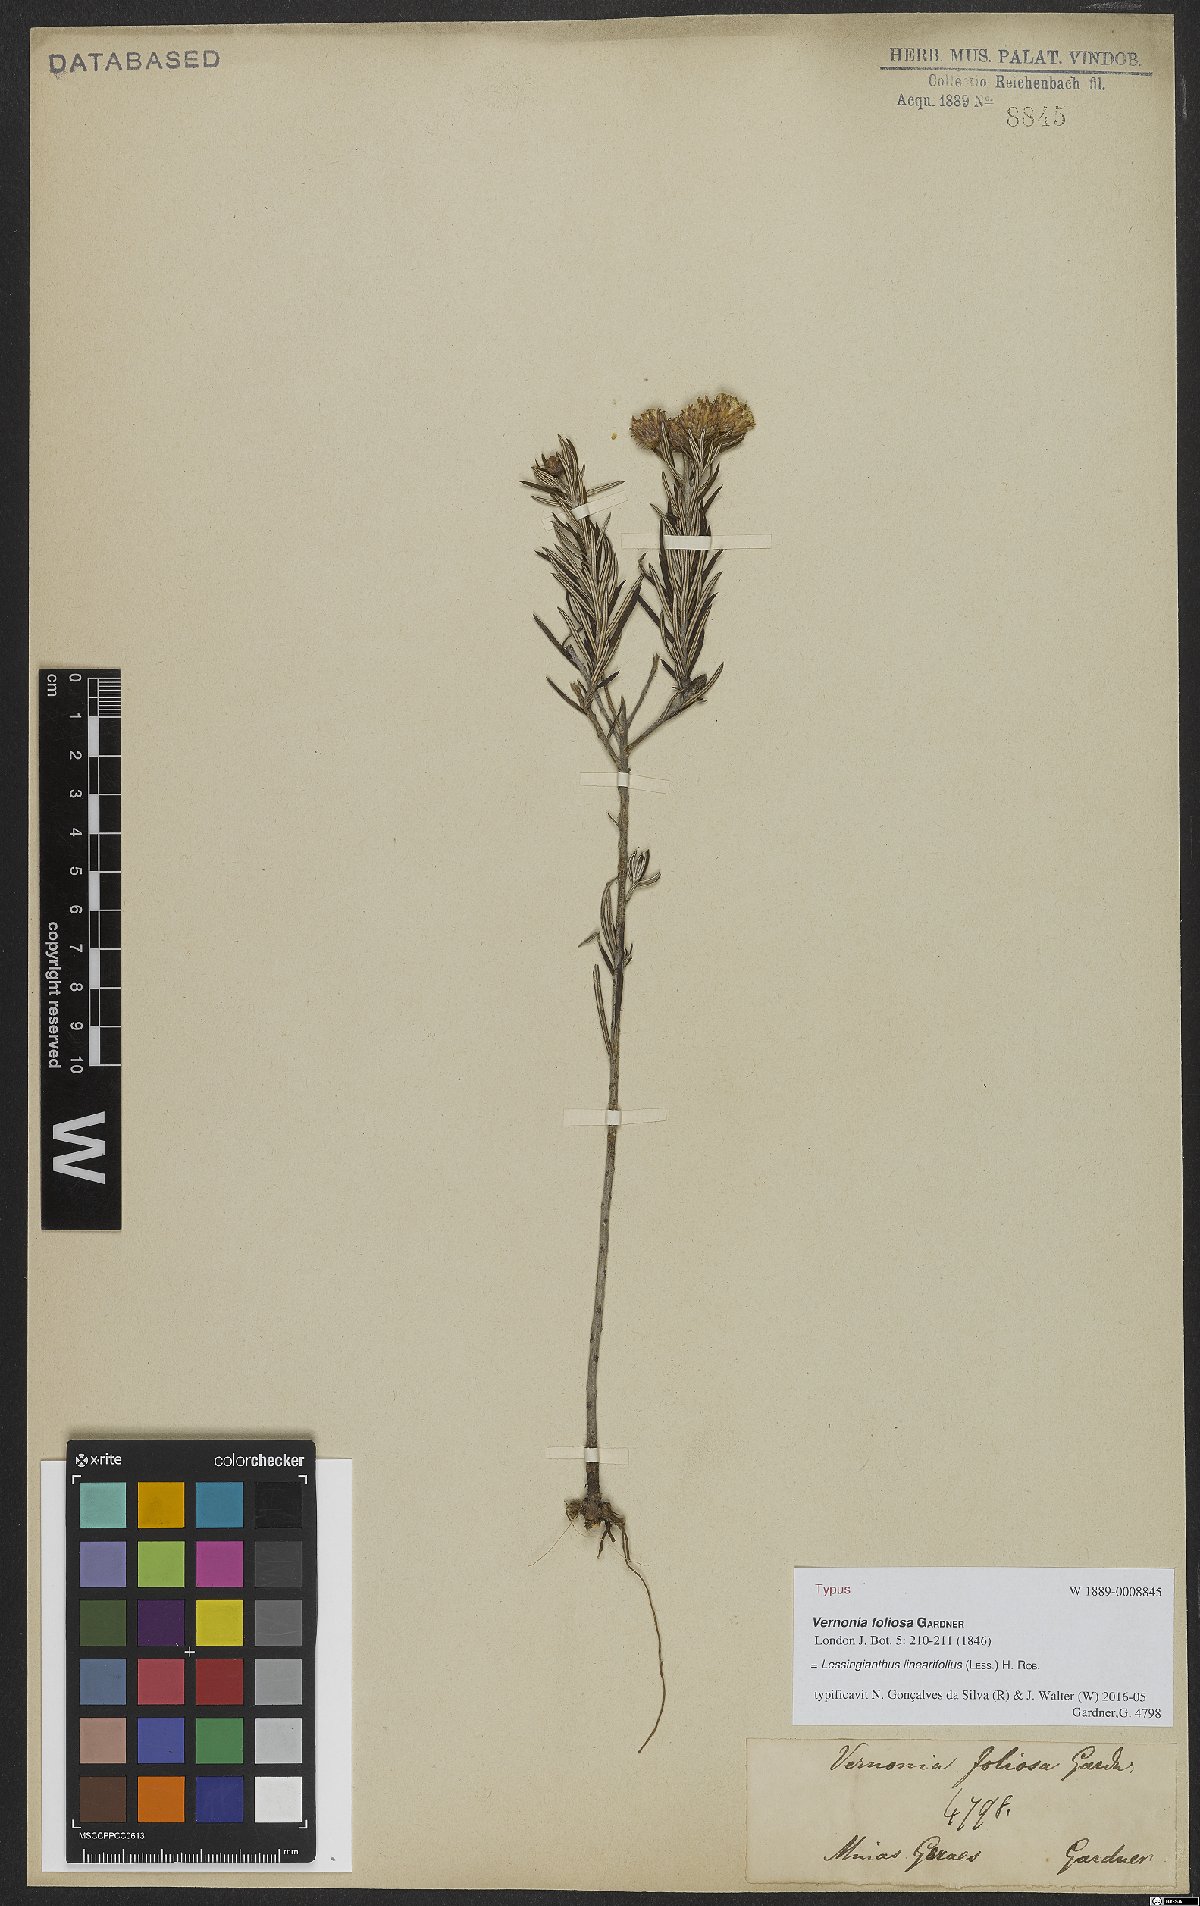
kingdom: Plantae
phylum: Tracheophyta
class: Magnoliopsida
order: Asterales
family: Asteraceae
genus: Lessingianthus
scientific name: Lessingianthus linearifolius
